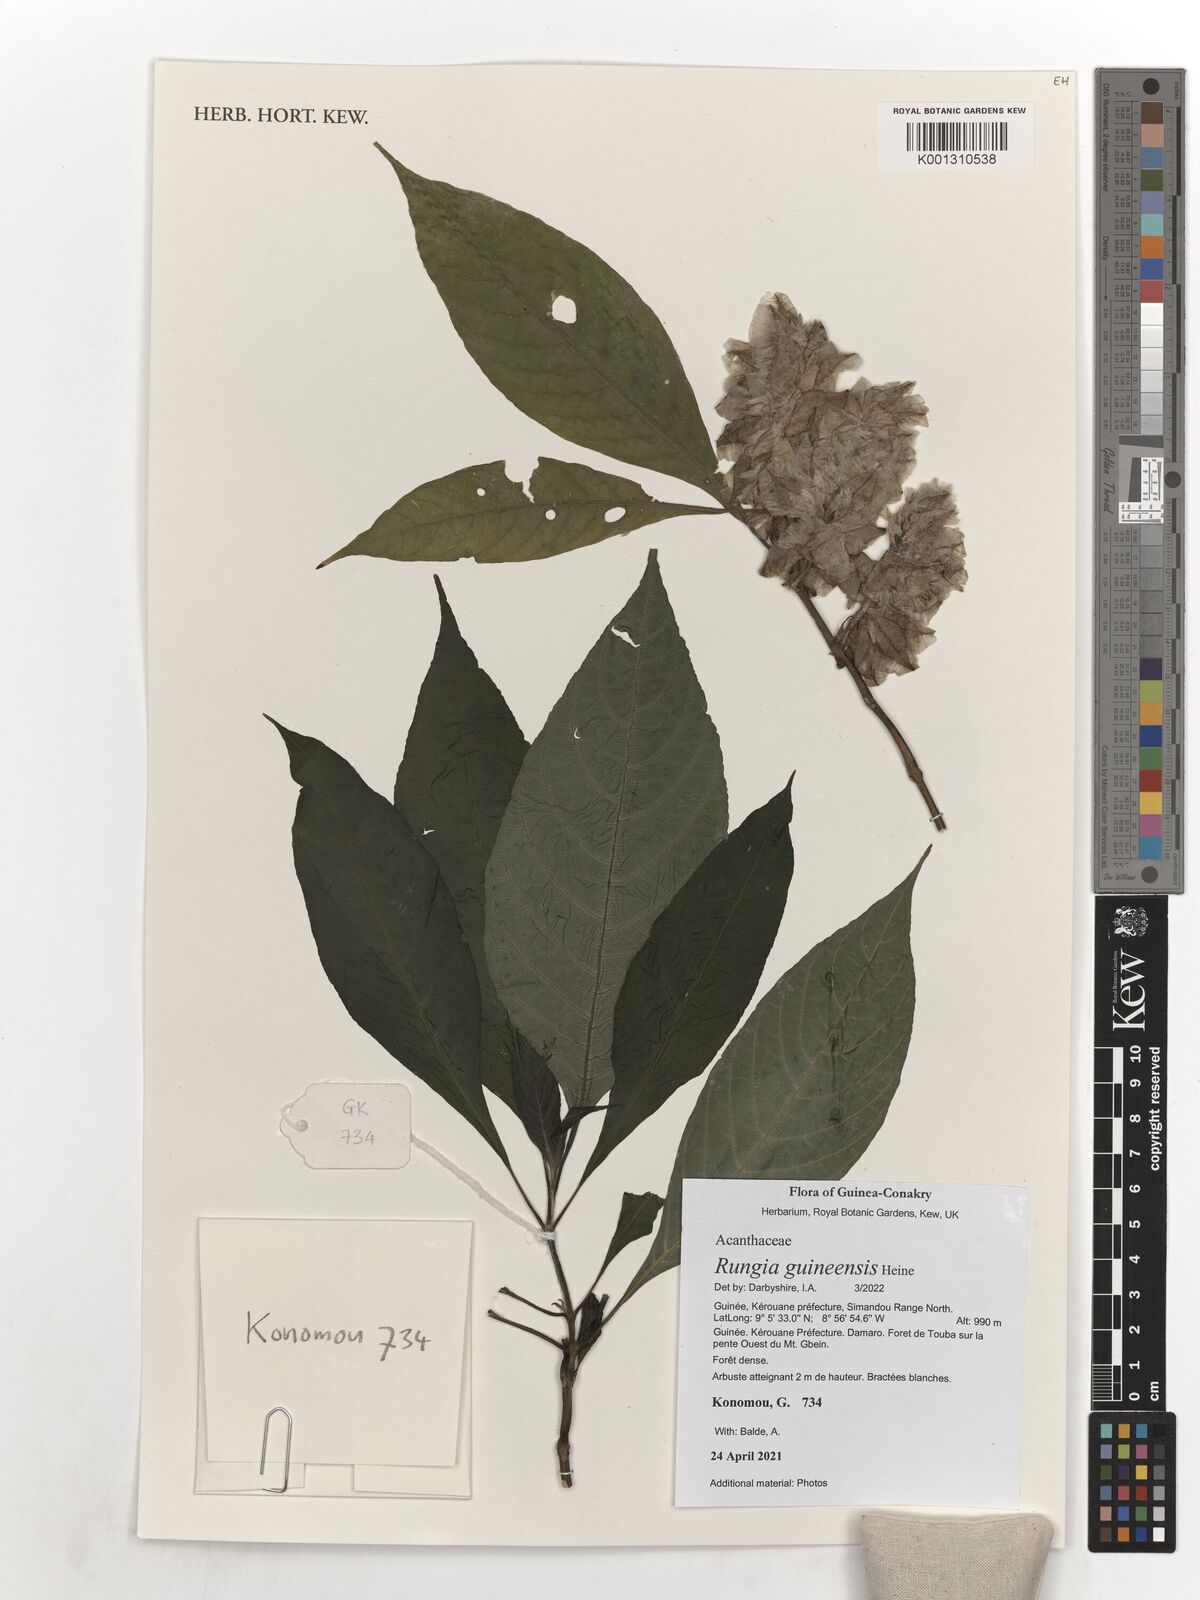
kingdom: Plantae
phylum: Tracheophyta
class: Magnoliopsida
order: Lamiales
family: Acanthaceae
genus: Justicia
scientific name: Justicia grandis
